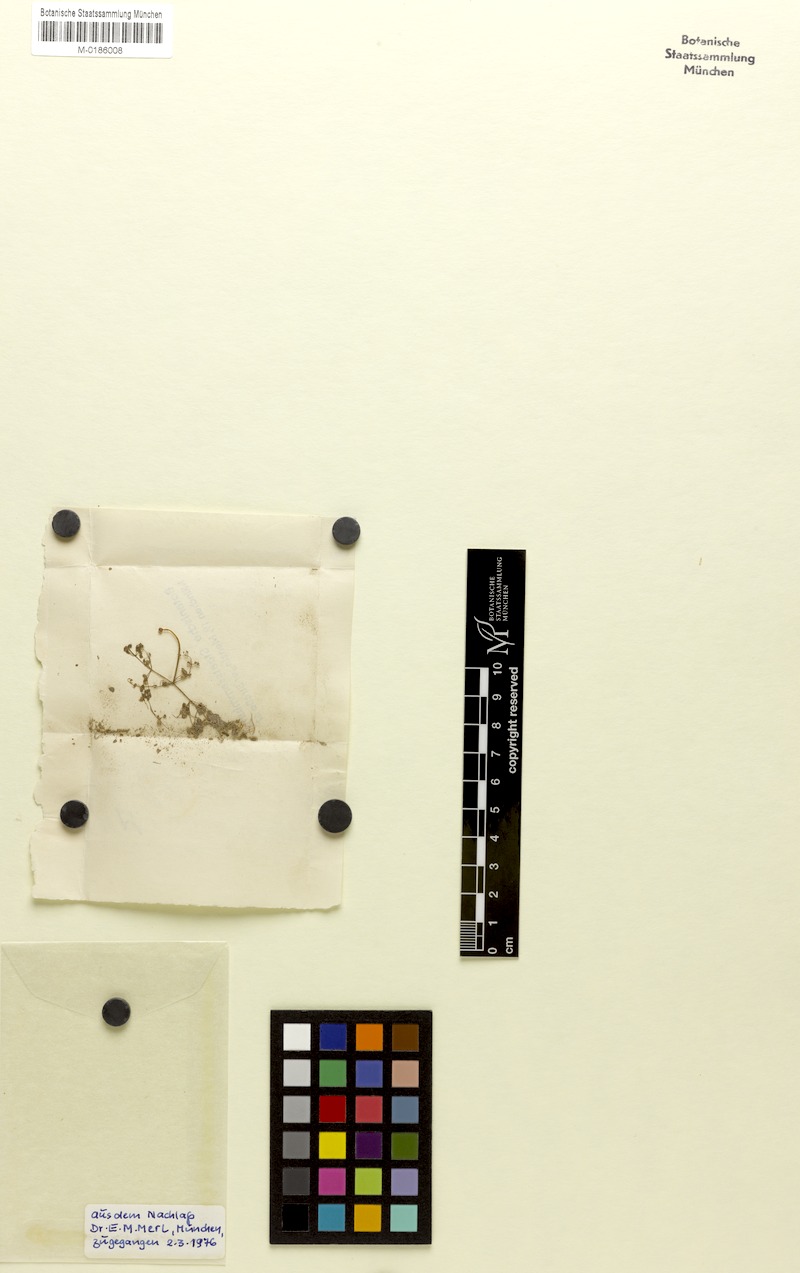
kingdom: Plantae
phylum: Tracheophyta
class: Magnoliopsida
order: Lamiales
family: Lentibulariaceae
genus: Utricularia
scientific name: Utricularia cucullata
